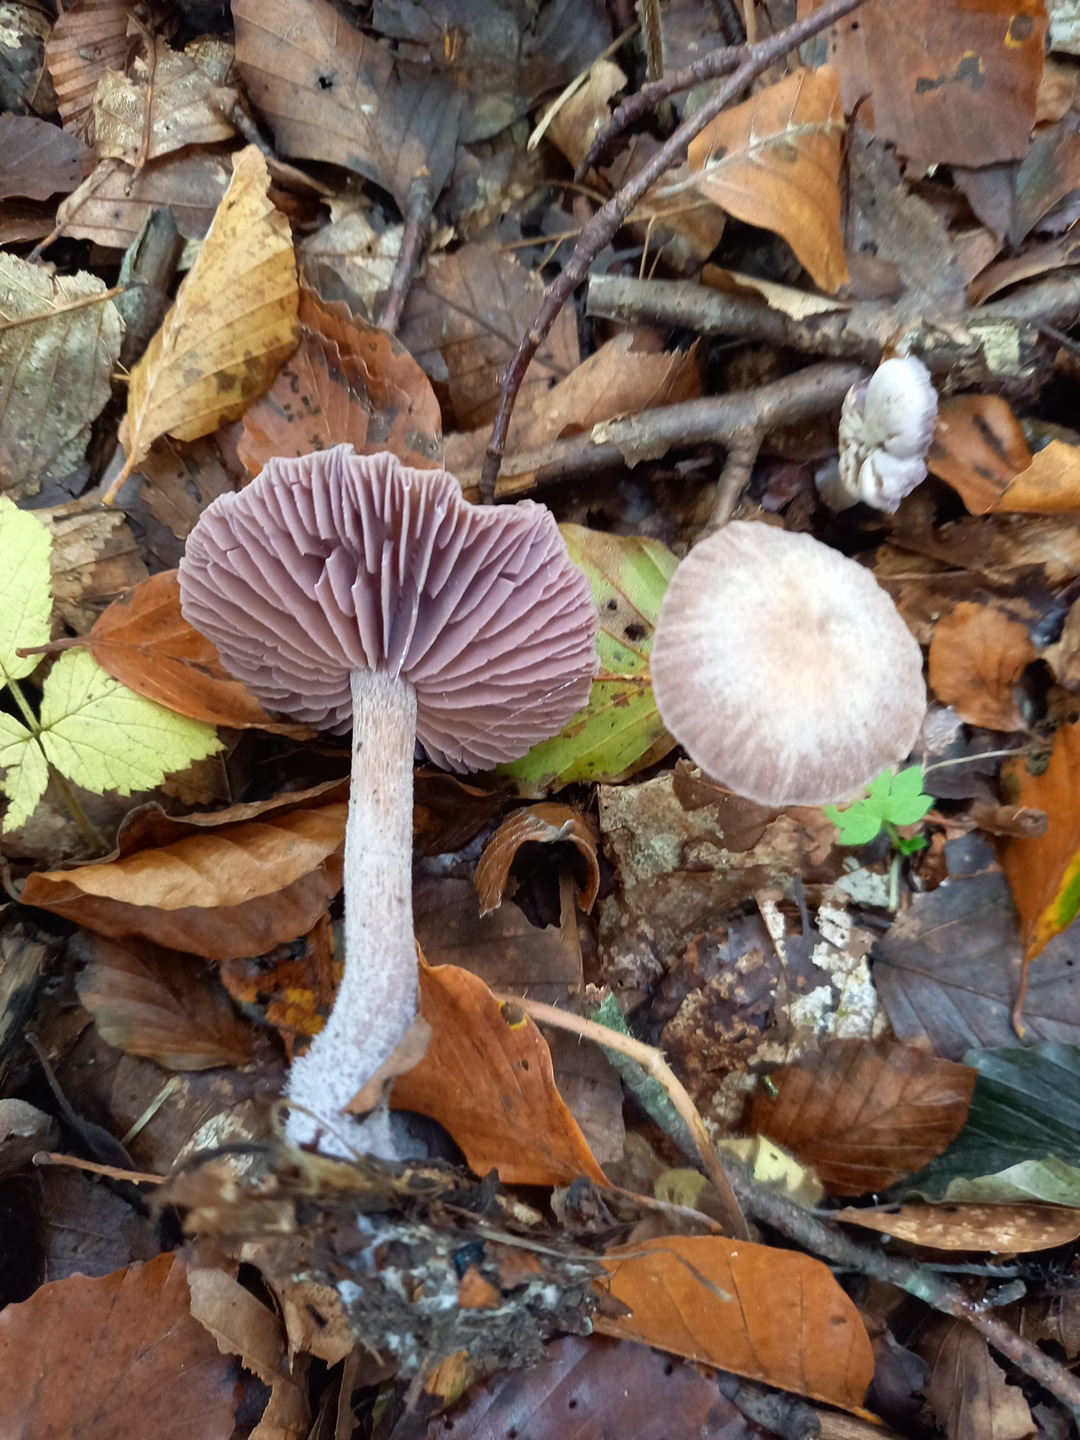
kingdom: Fungi
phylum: Basidiomycota
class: Agaricomycetes
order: Agaricales
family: Hydnangiaceae
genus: Laccaria
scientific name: Laccaria amethystina
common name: violet ametysthat
